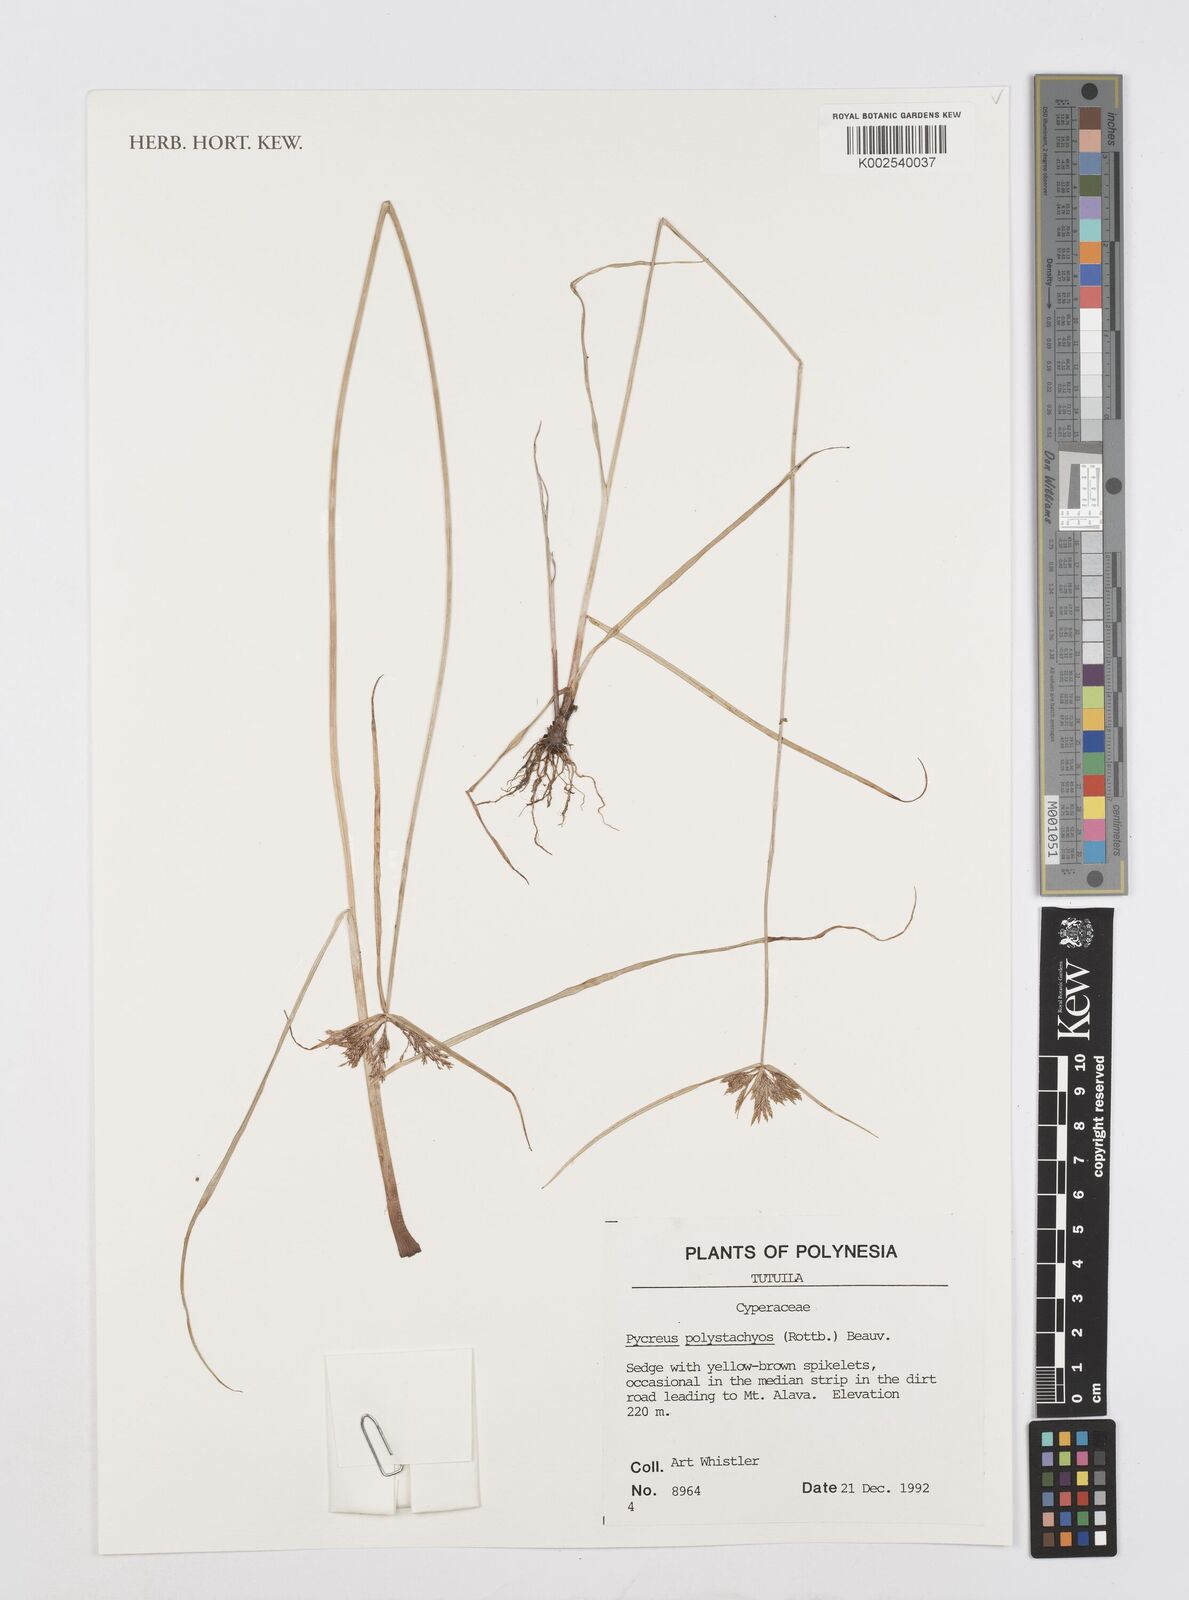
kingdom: Plantae
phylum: Tracheophyta
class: Liliopsida
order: Poales
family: Cyperaceae
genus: Cyperus
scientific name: Cyperus polystachyos
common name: Bunchy flat sedge
